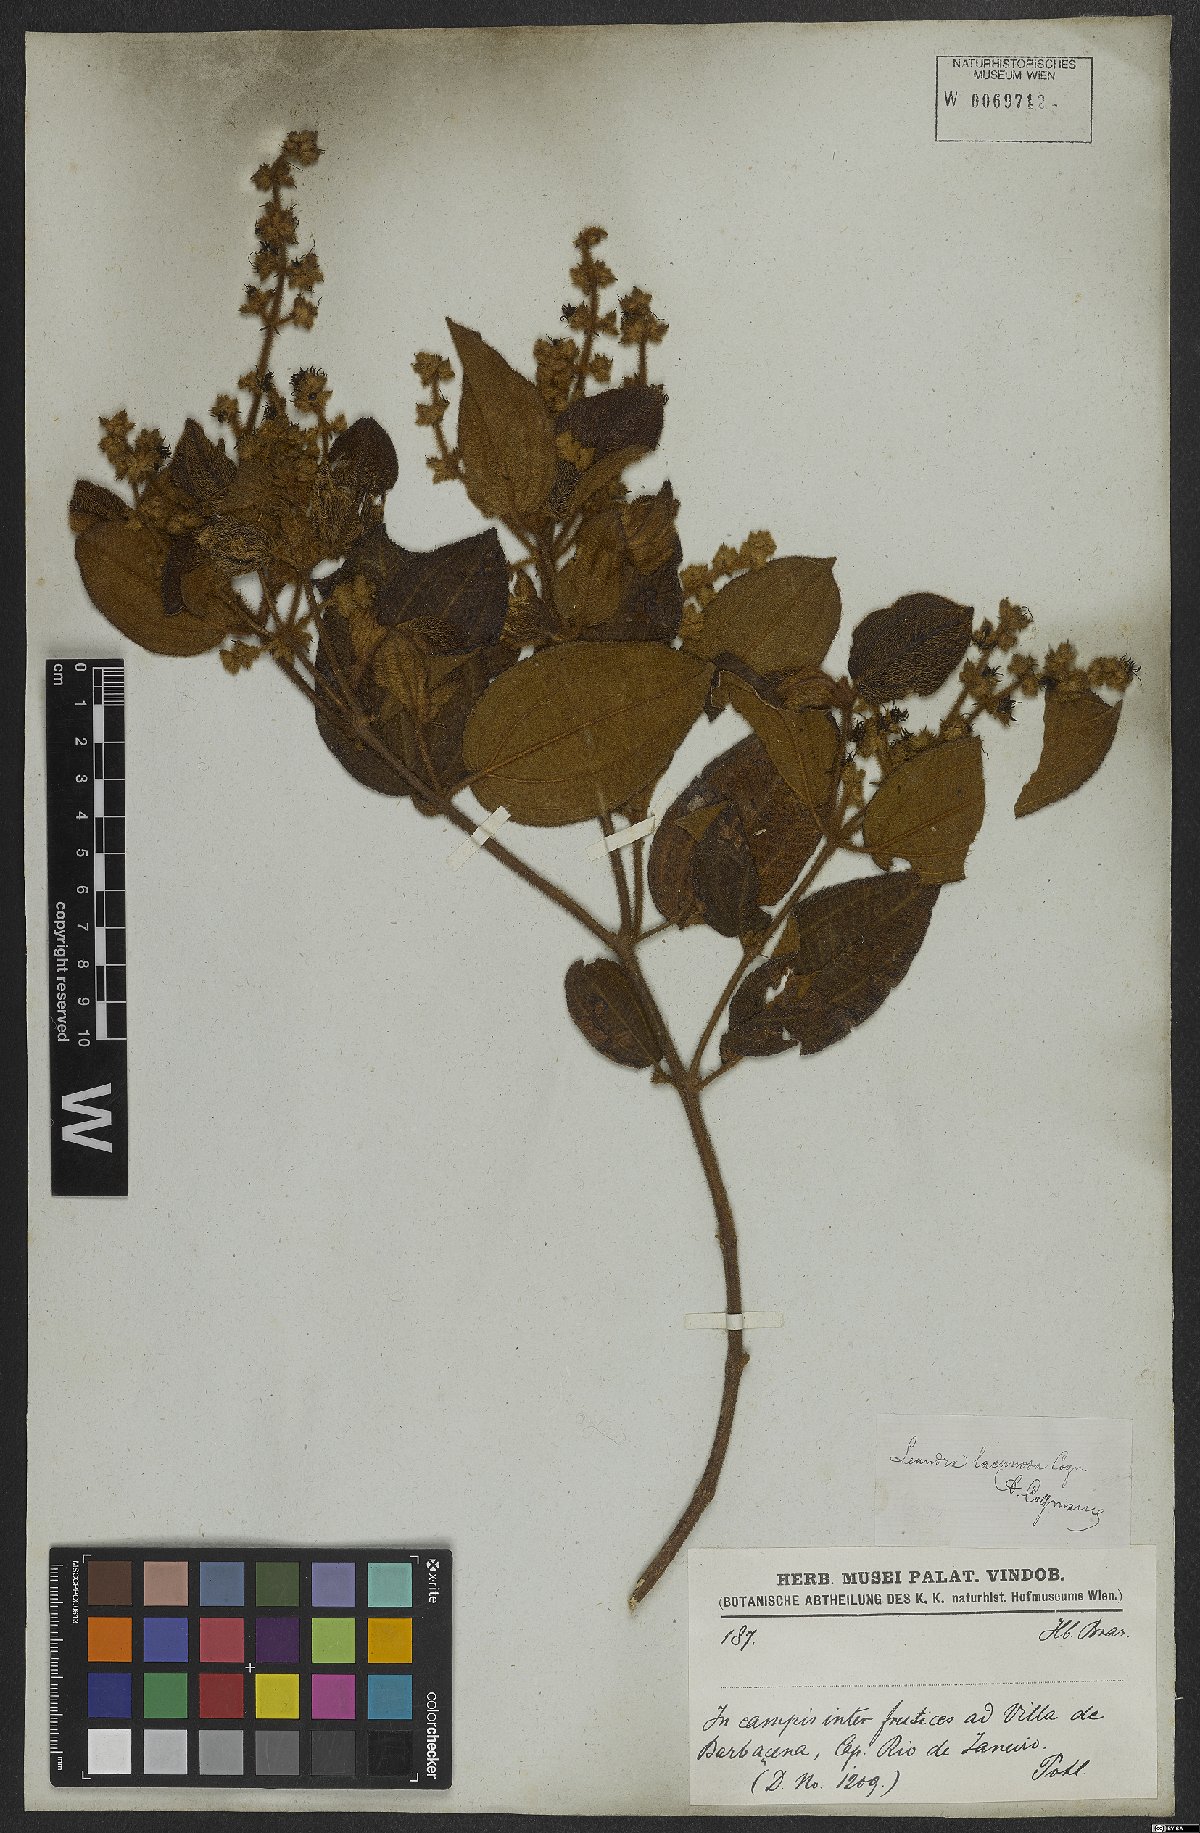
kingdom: Plantae
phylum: Tracheophyta
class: Magnoliopsida
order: Myrtales
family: Melastomataceae
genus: Miconia
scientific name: Miconia lacunosa
